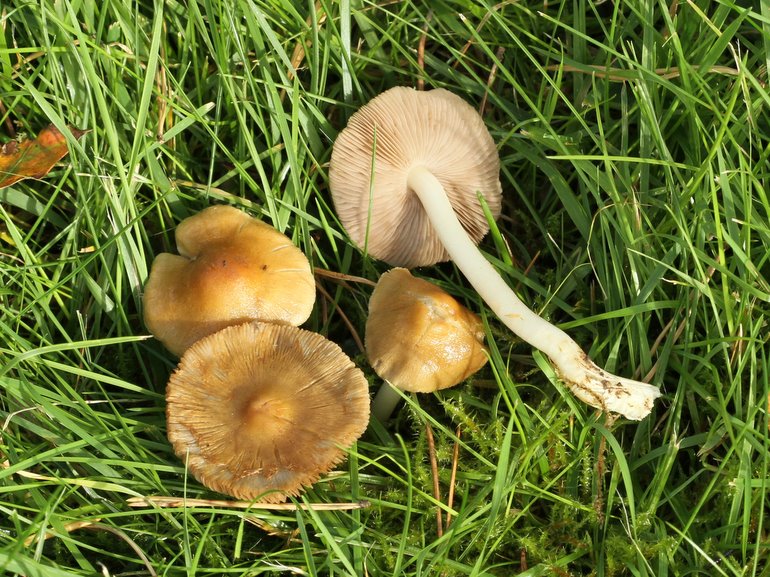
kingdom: Fungi
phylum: Basidiomycota
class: Agaricomycetes
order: Agaricales
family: Inocybaceae
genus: Inocybe
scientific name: Inocybe mixtilis
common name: randknoldet trævlhat
